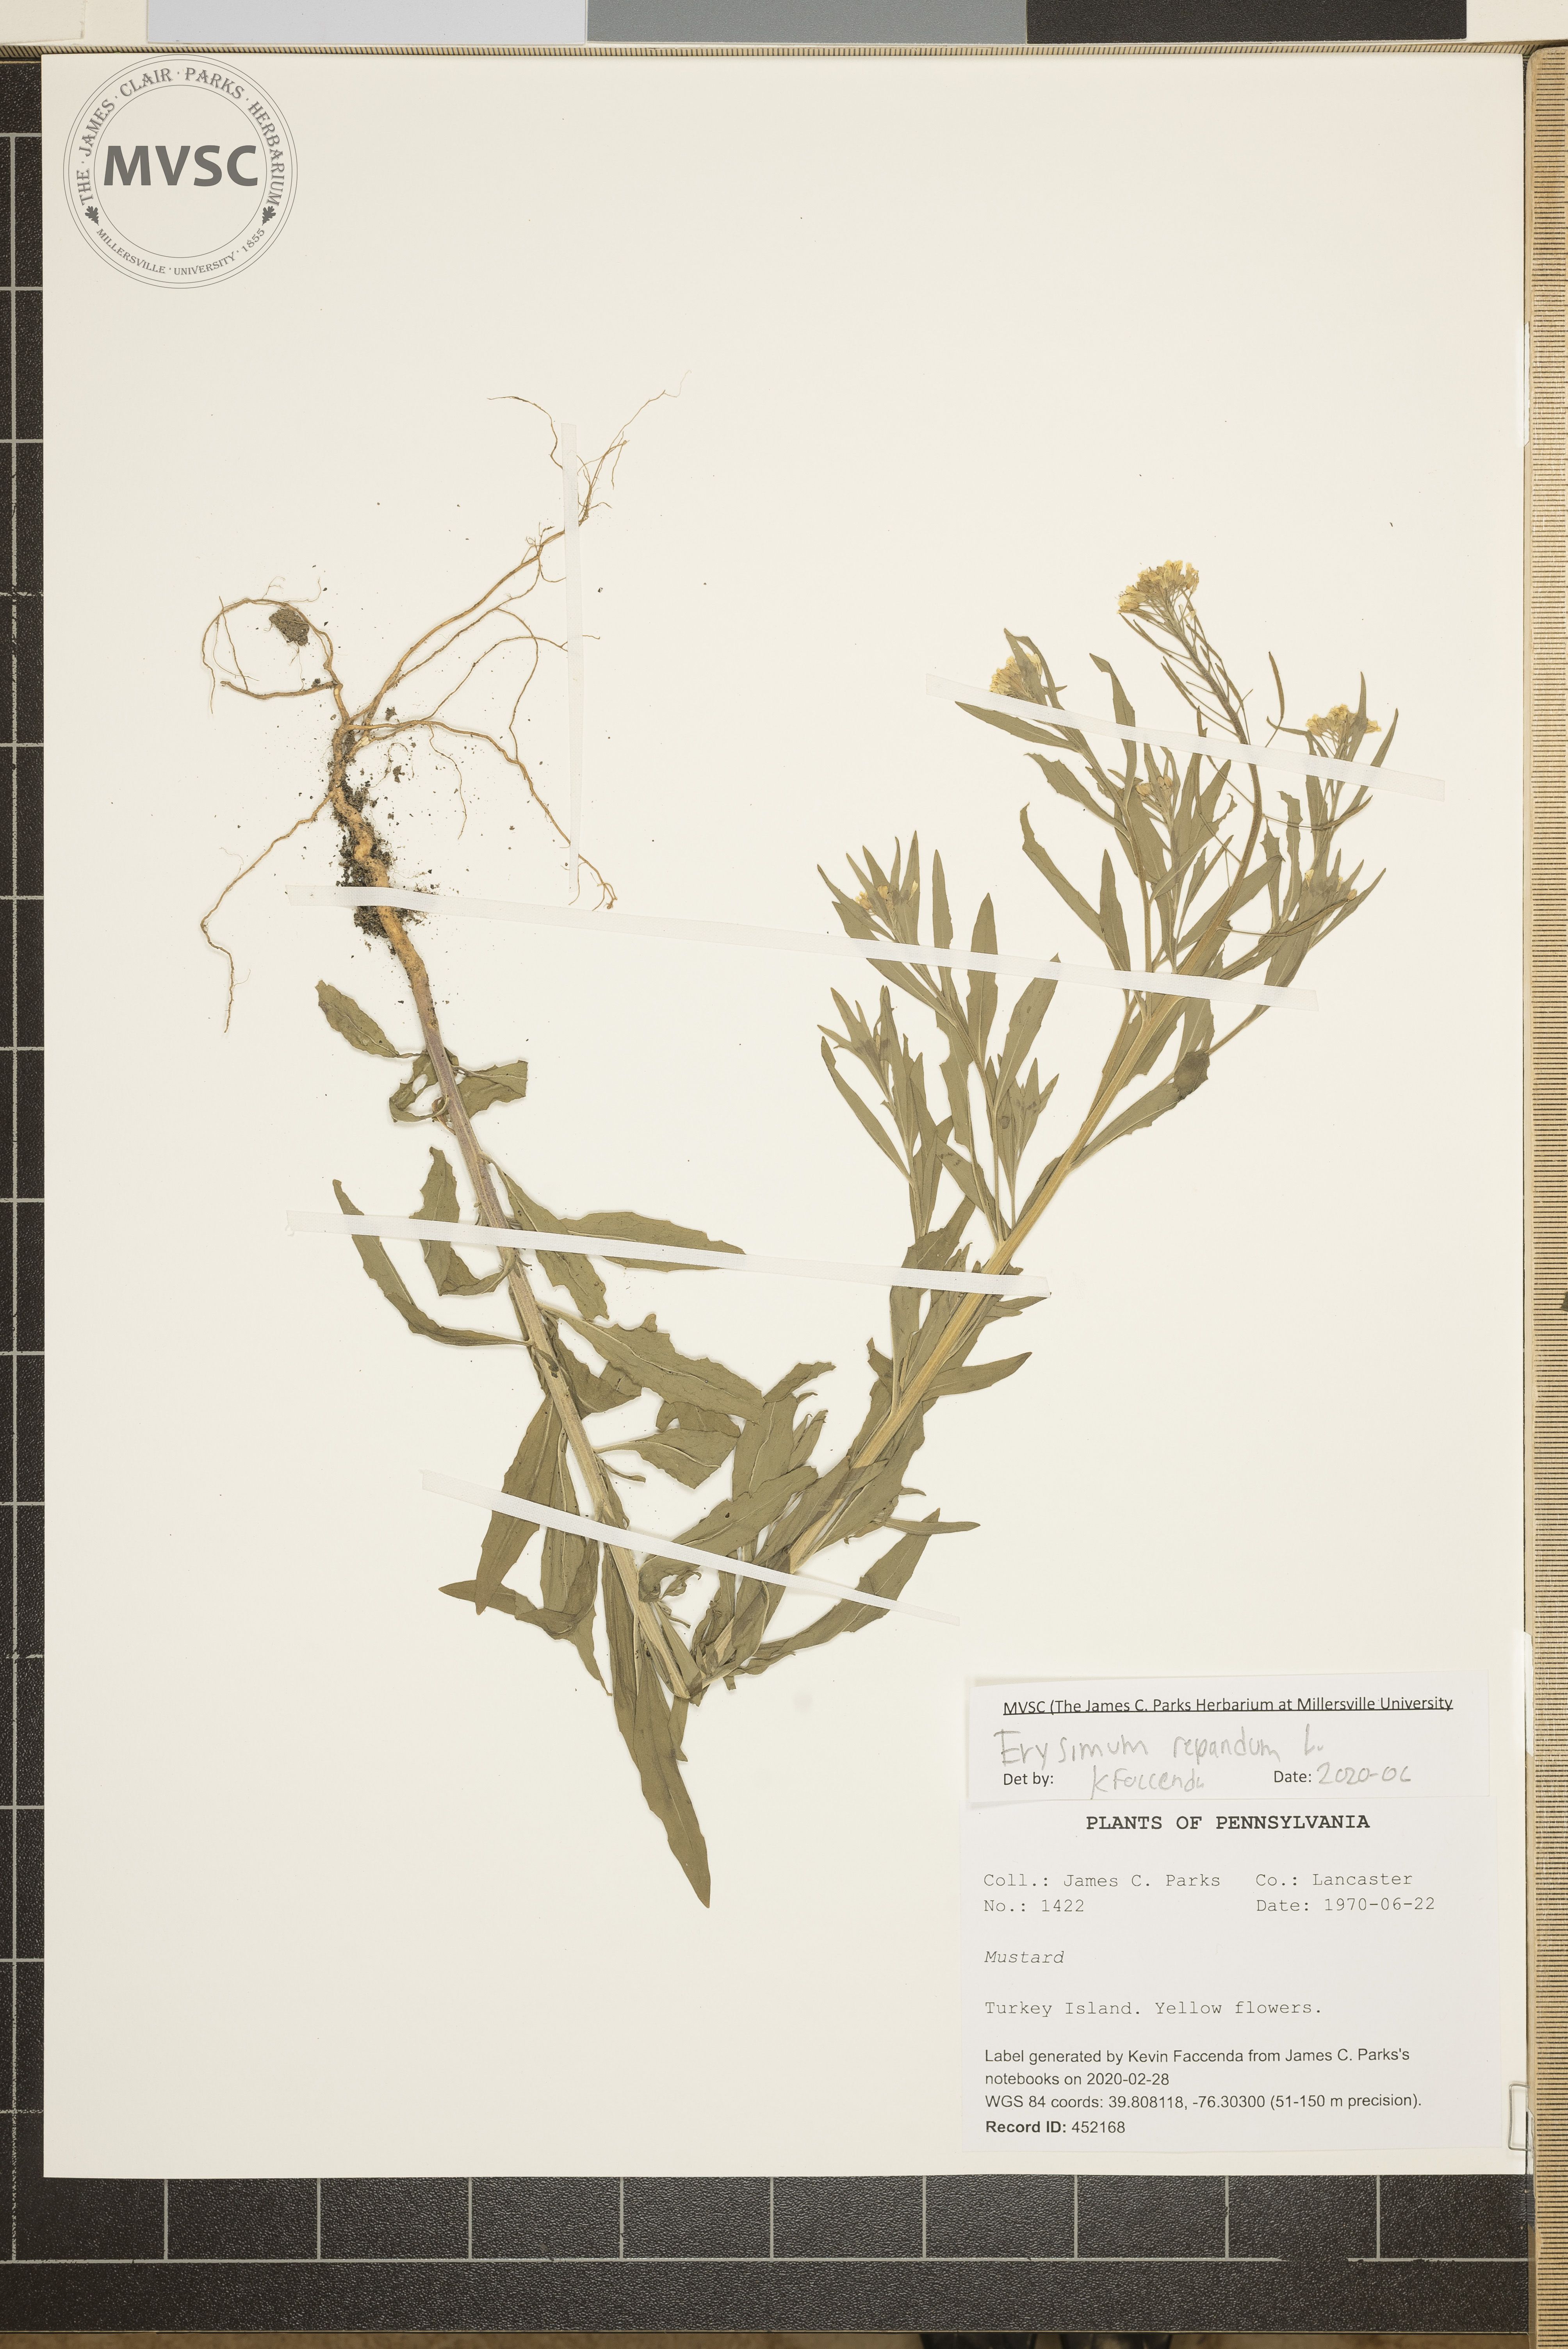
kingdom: Plantae
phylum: Tracheophyta
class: Magnoliopsida
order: Brassicales
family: Brassicaceae
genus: Erysimum
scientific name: Erysimum repandum
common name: Spreading wallflower
